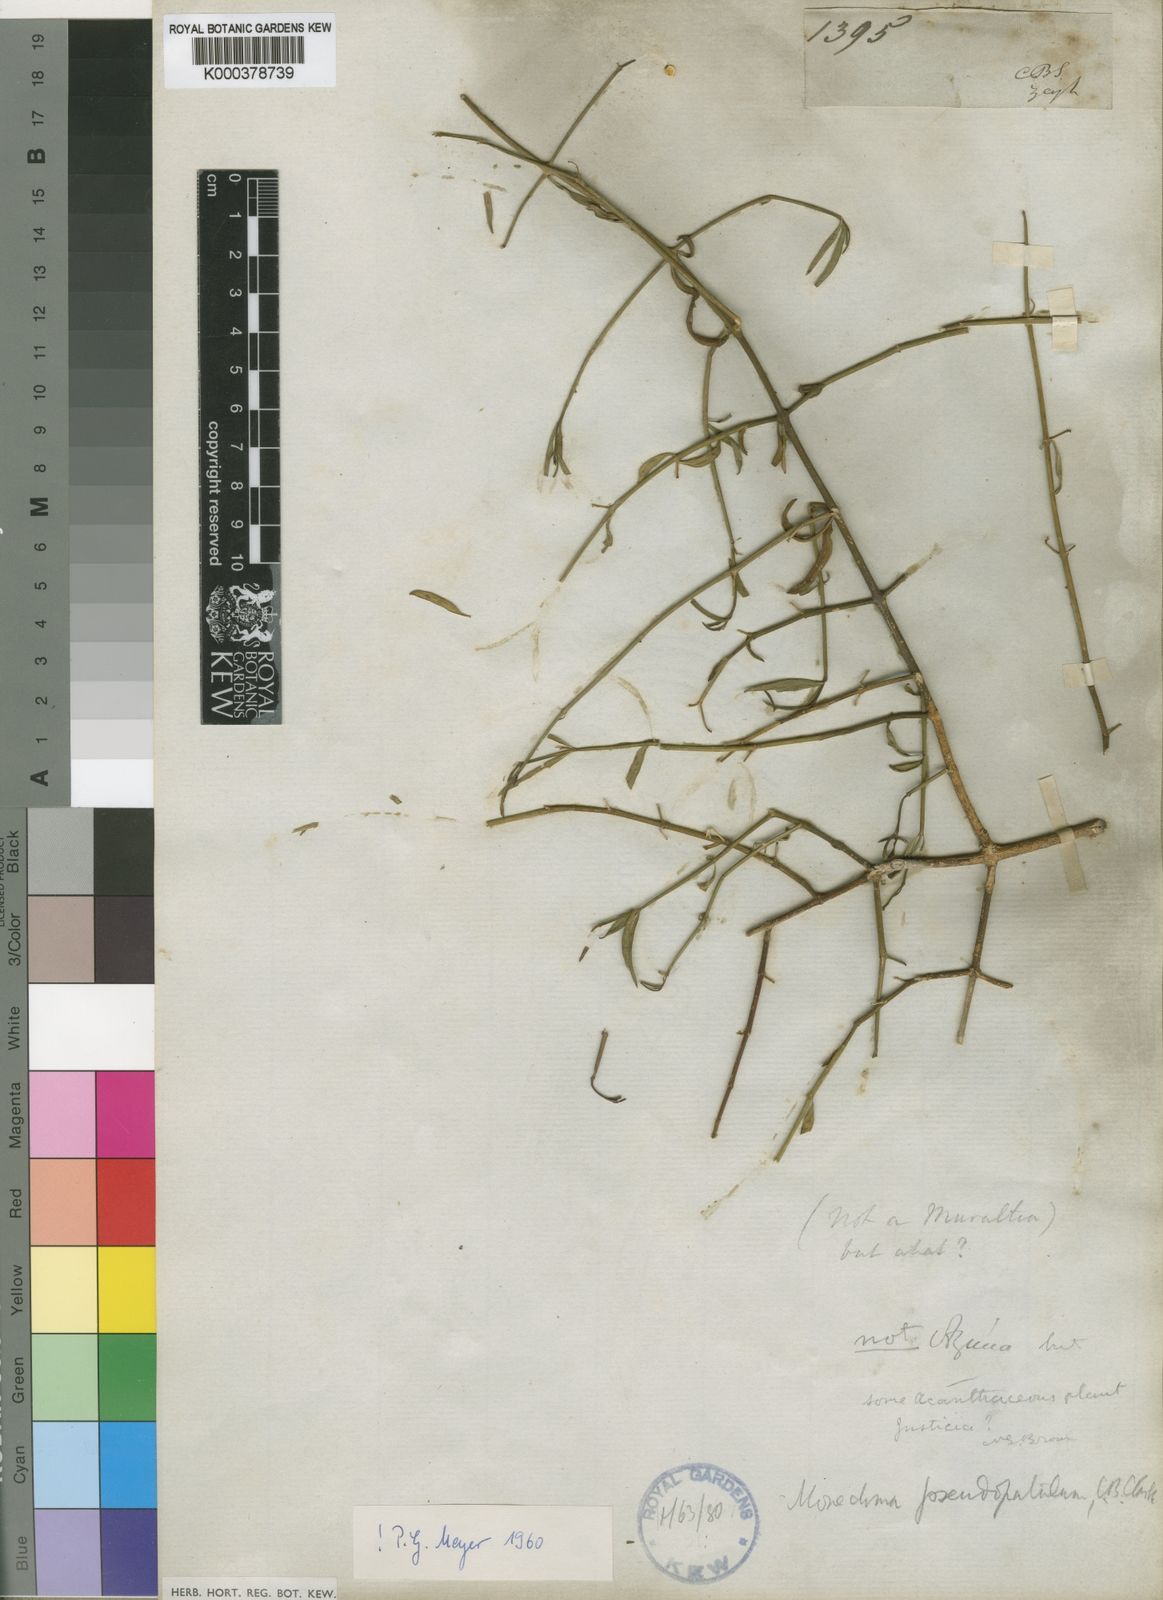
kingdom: Plantae
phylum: Tracheophyta
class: Magnoliopsida
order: Lamiales
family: Acanthaceae
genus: Monechma
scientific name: Monechma spartioides
